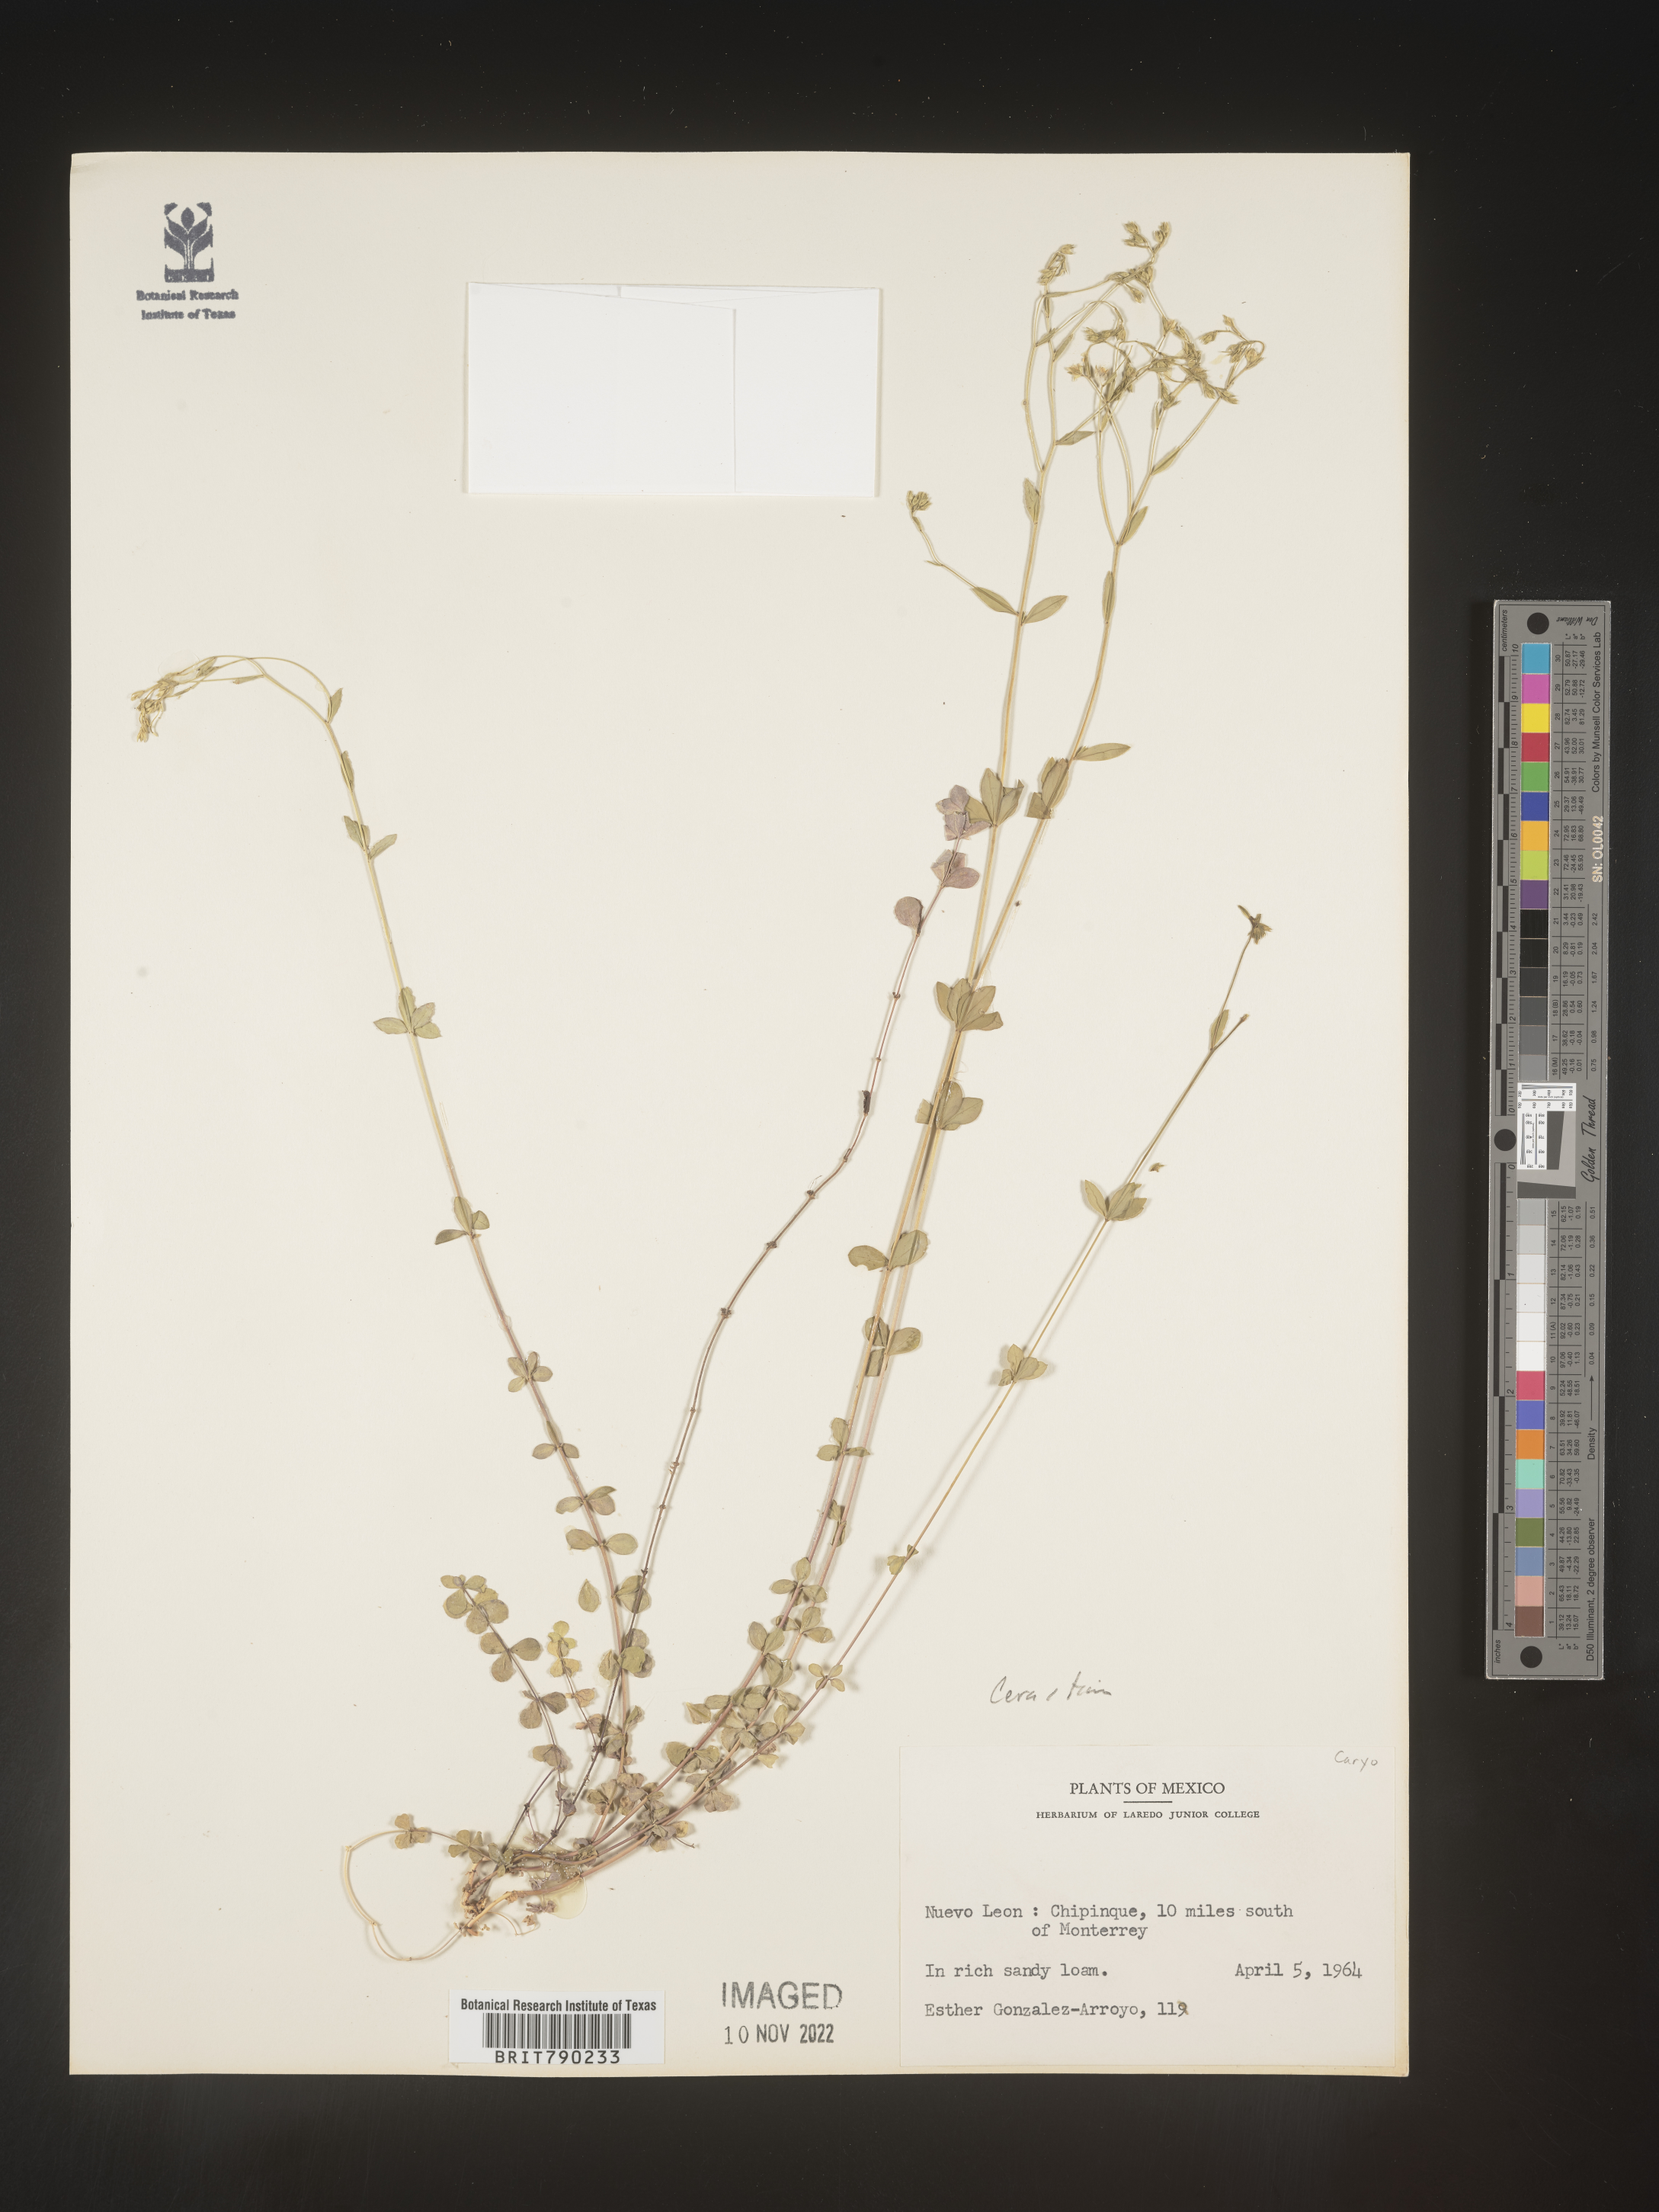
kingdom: Plantae
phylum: Tracheophyta
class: Magnoliopsida
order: Caryophyllales
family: Caryophyllaceae
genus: Cerastium
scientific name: Cerastium
